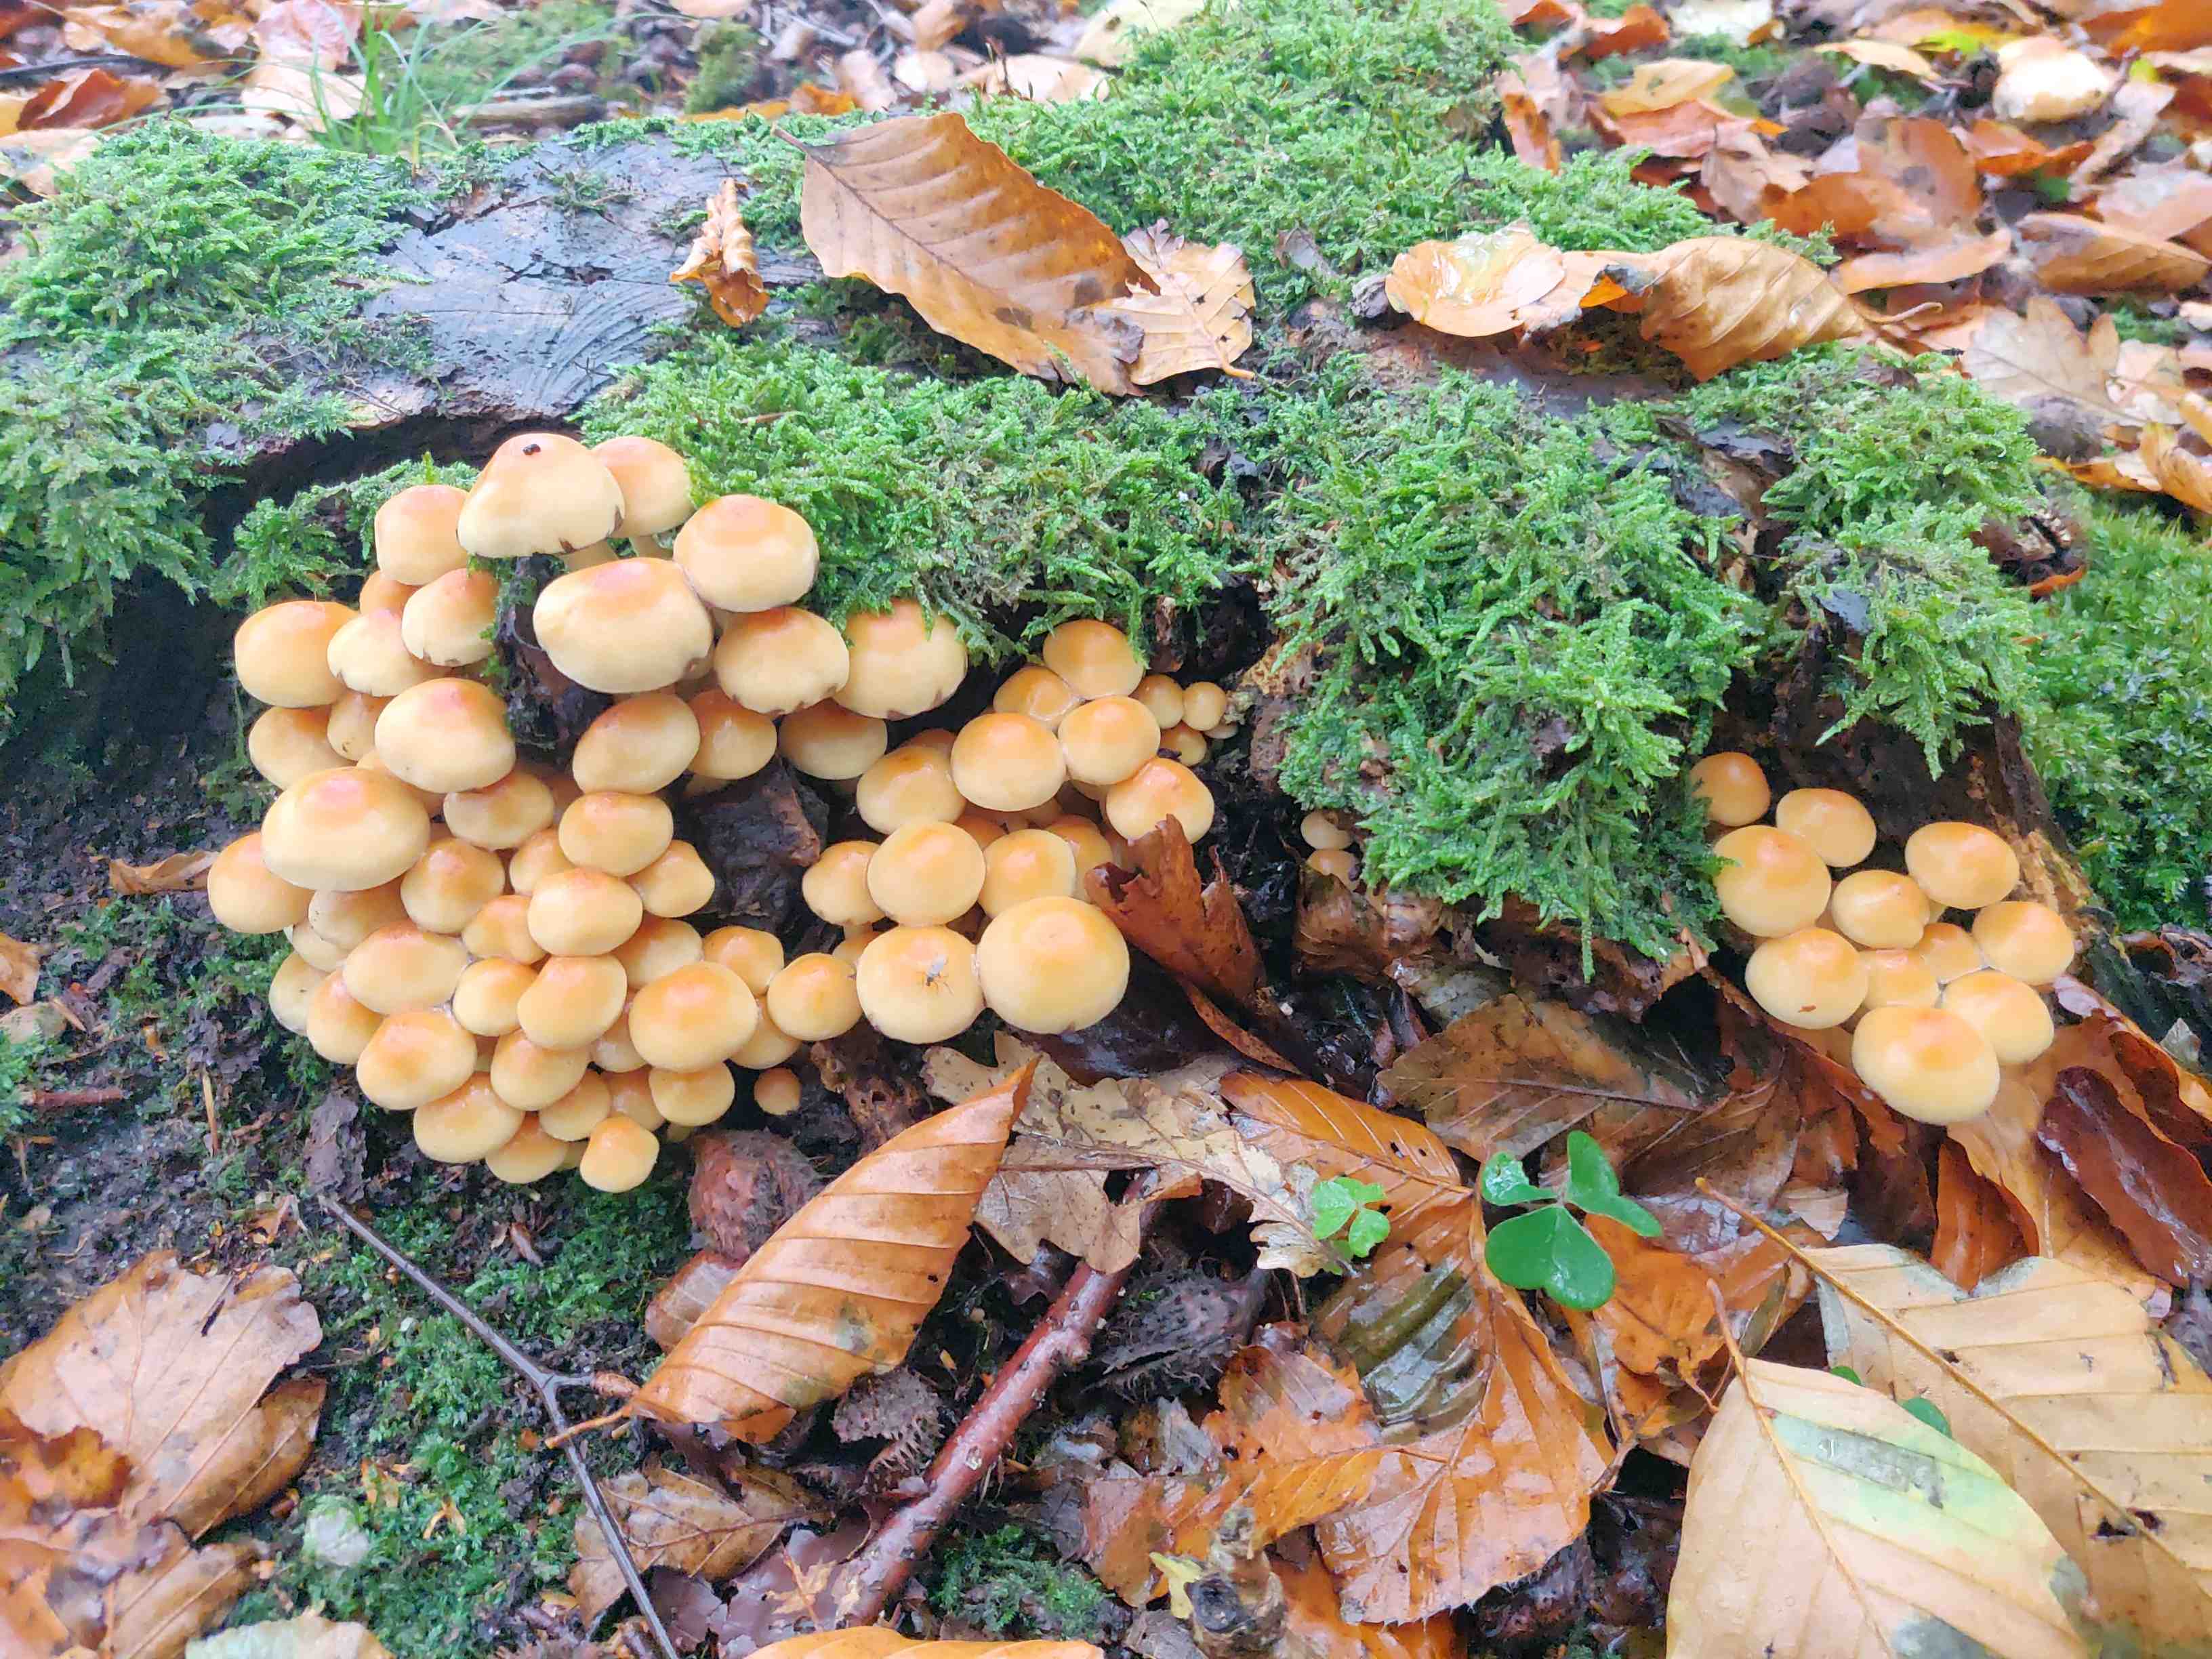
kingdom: Fungi
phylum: Basidiomycota
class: Agaricomycetes
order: Agaricales
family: Strophariaceae
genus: Hypholoma
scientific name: Hypholoma fasciculare
